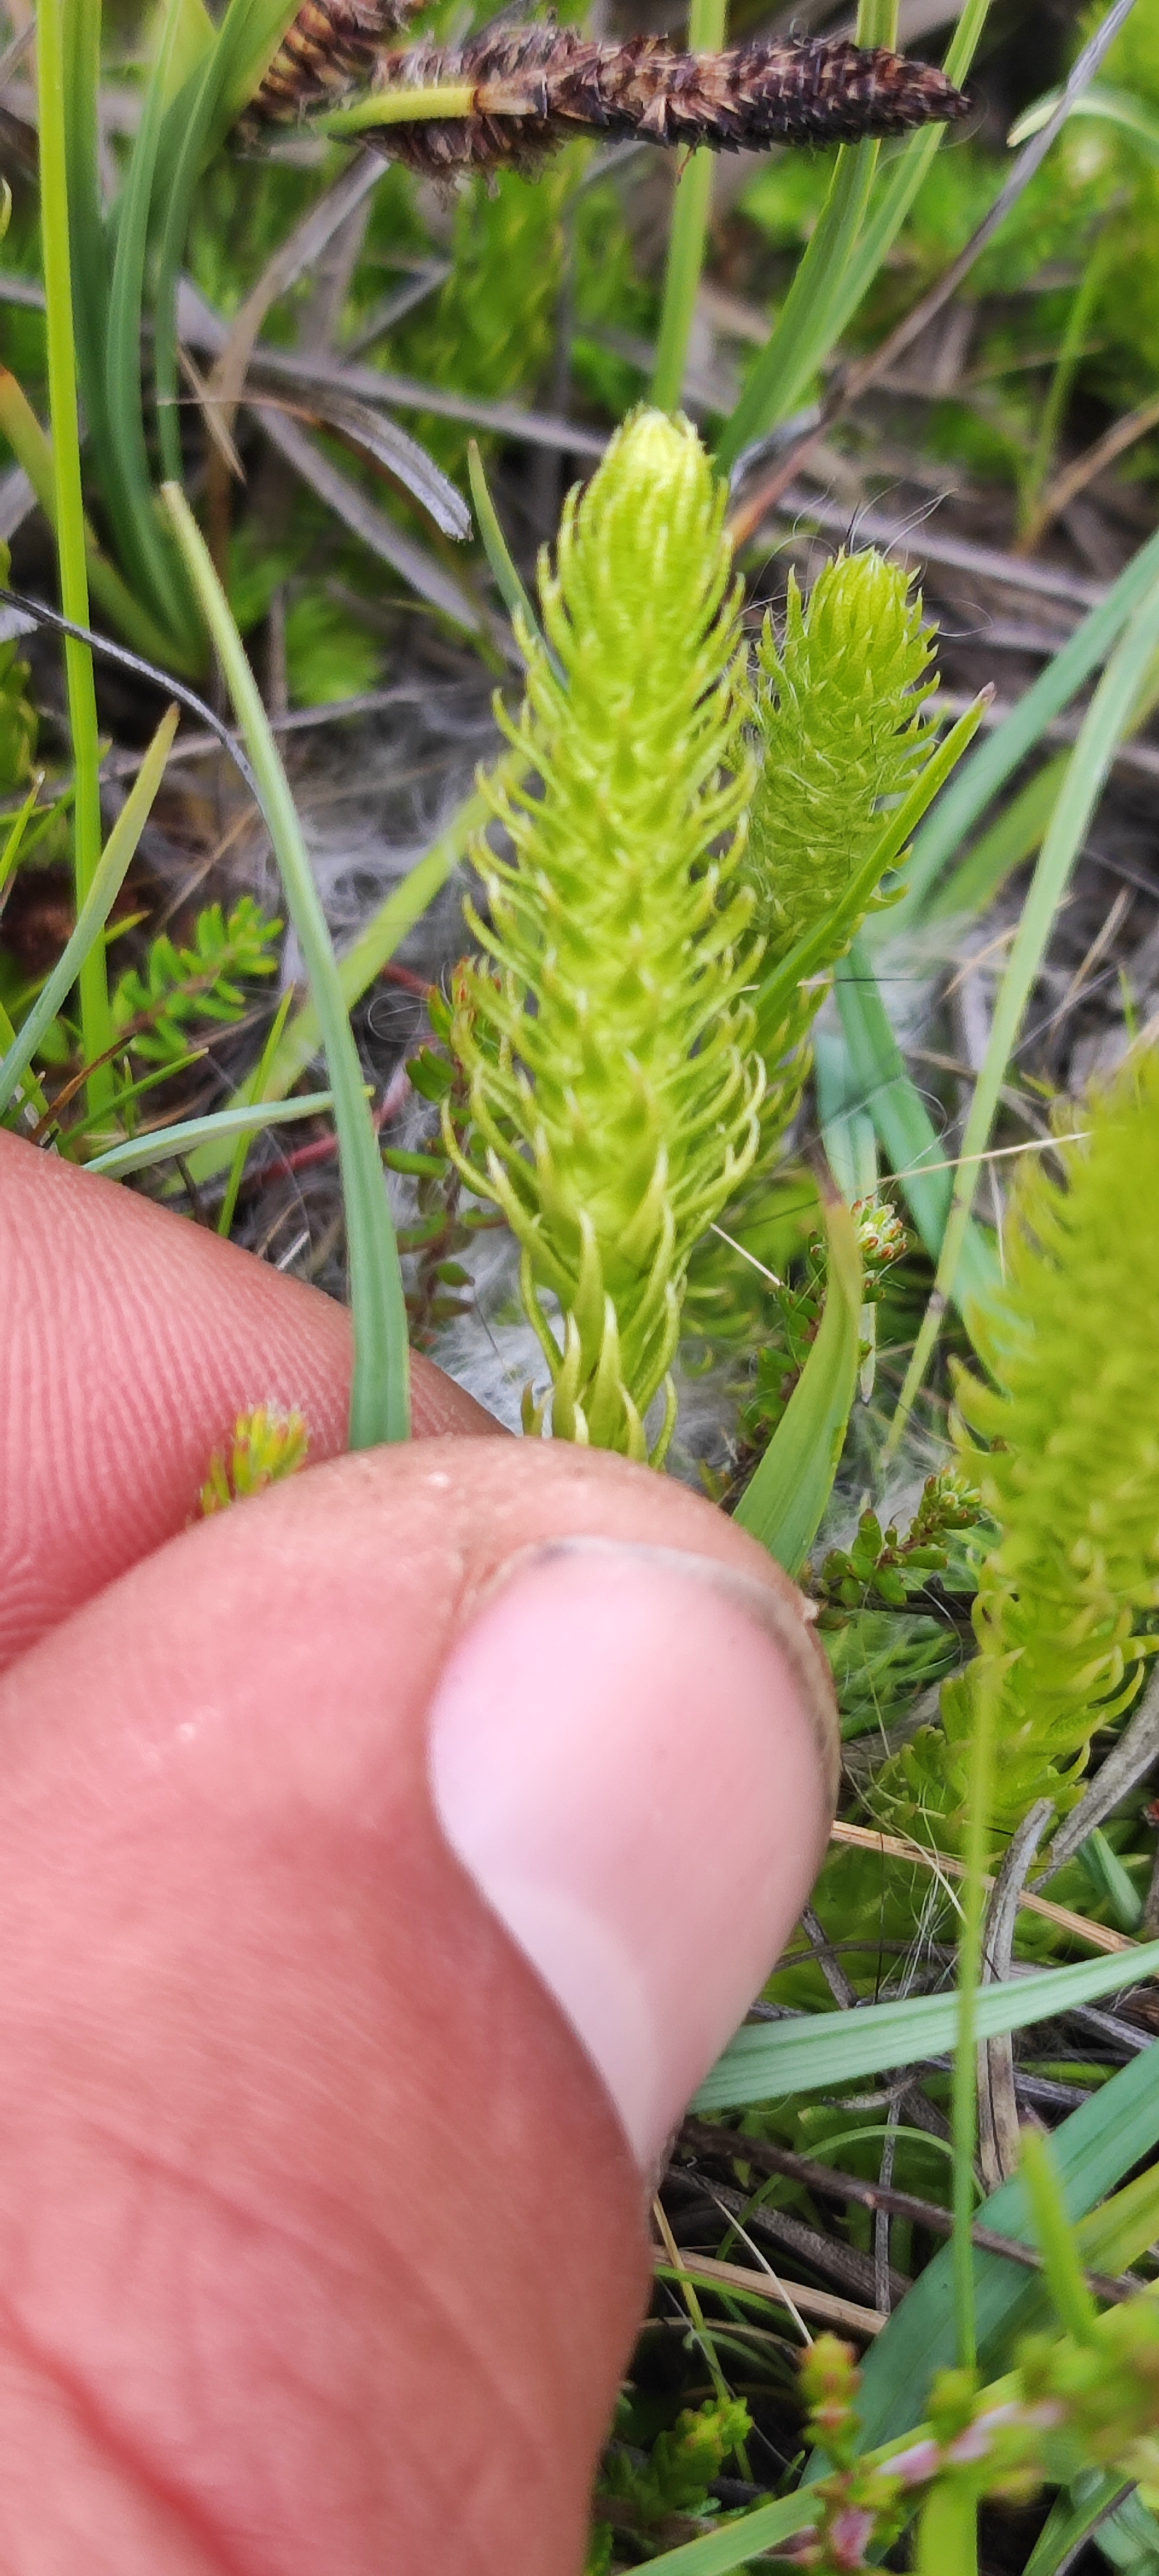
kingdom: Plantae
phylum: Tracheophyta
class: Lycopodiopsida
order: Lycopodiales
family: Lycopodiaceae
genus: Lycopodiella
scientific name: Lycopodiella inundata
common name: Liden ulvefod
